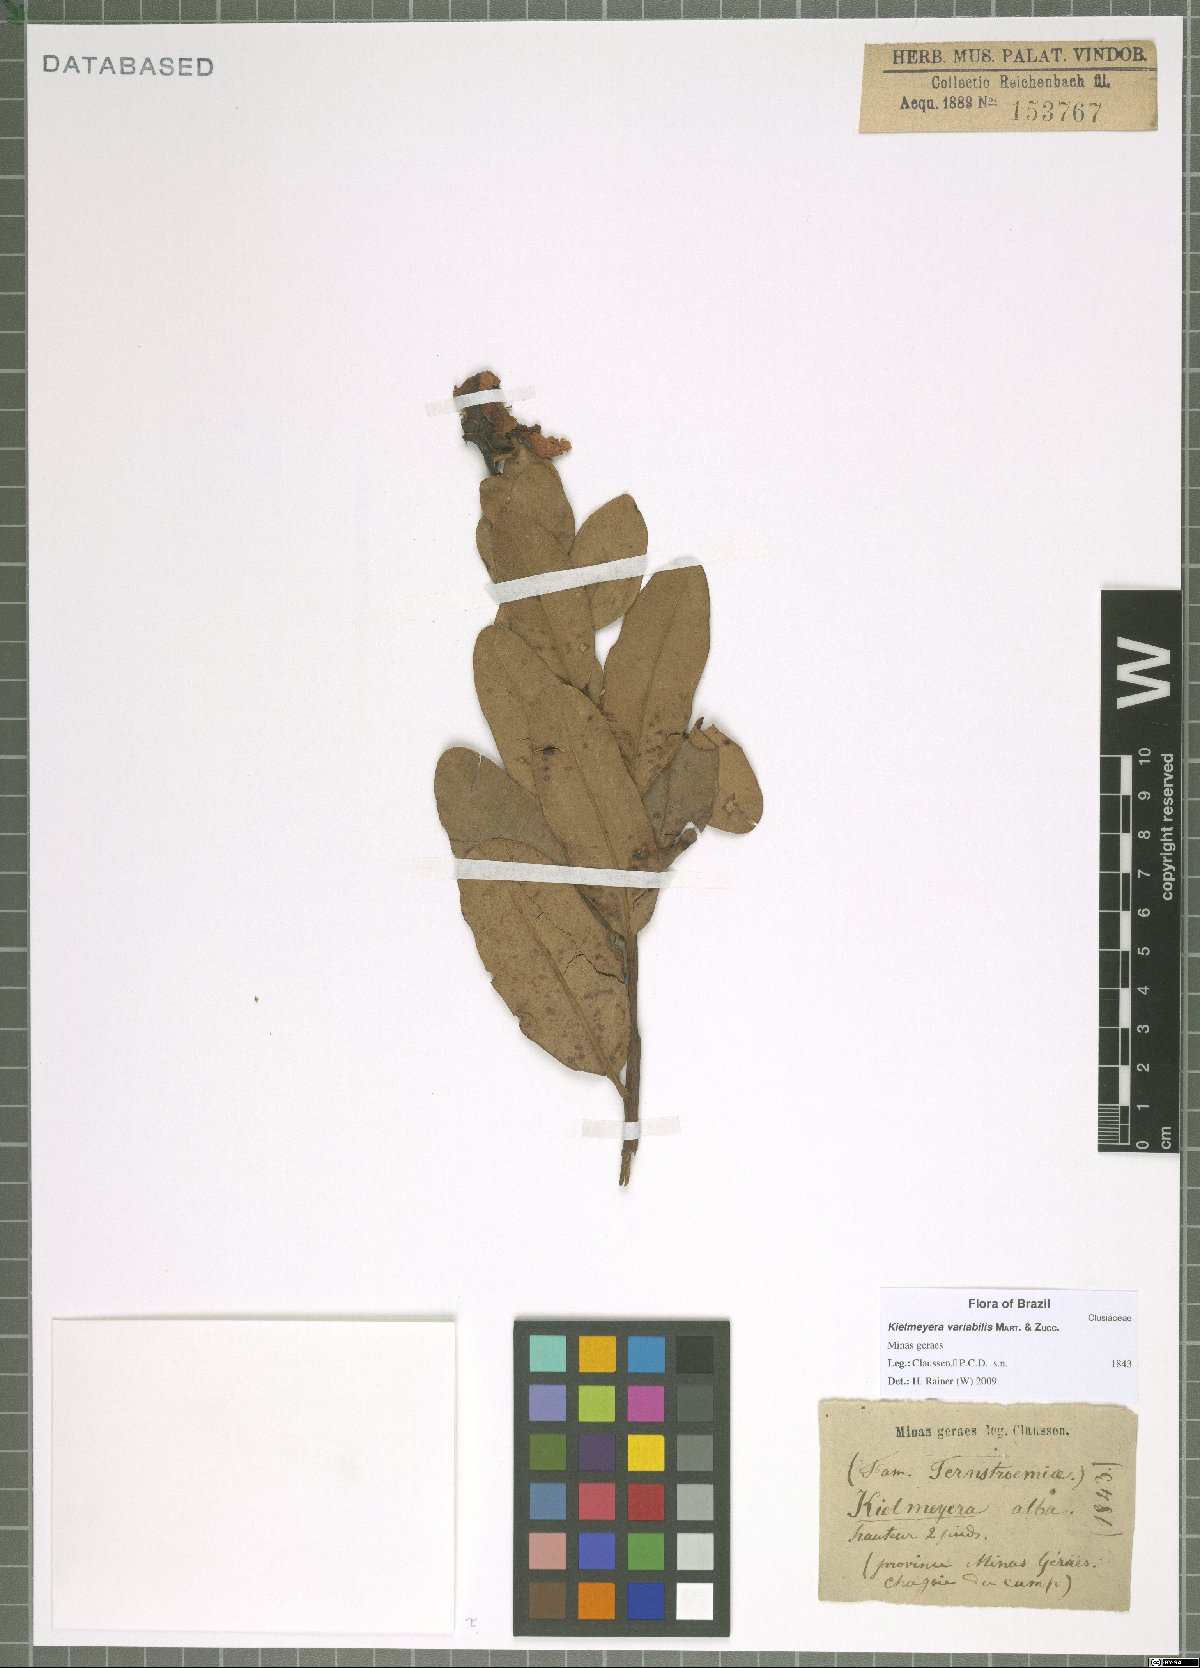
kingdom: Plantae
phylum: Tracheophyta
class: Magnoliopsida
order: Malpighiales
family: Calophyllaceae
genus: Kielmeyera
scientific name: Kielmeyera variabilis
